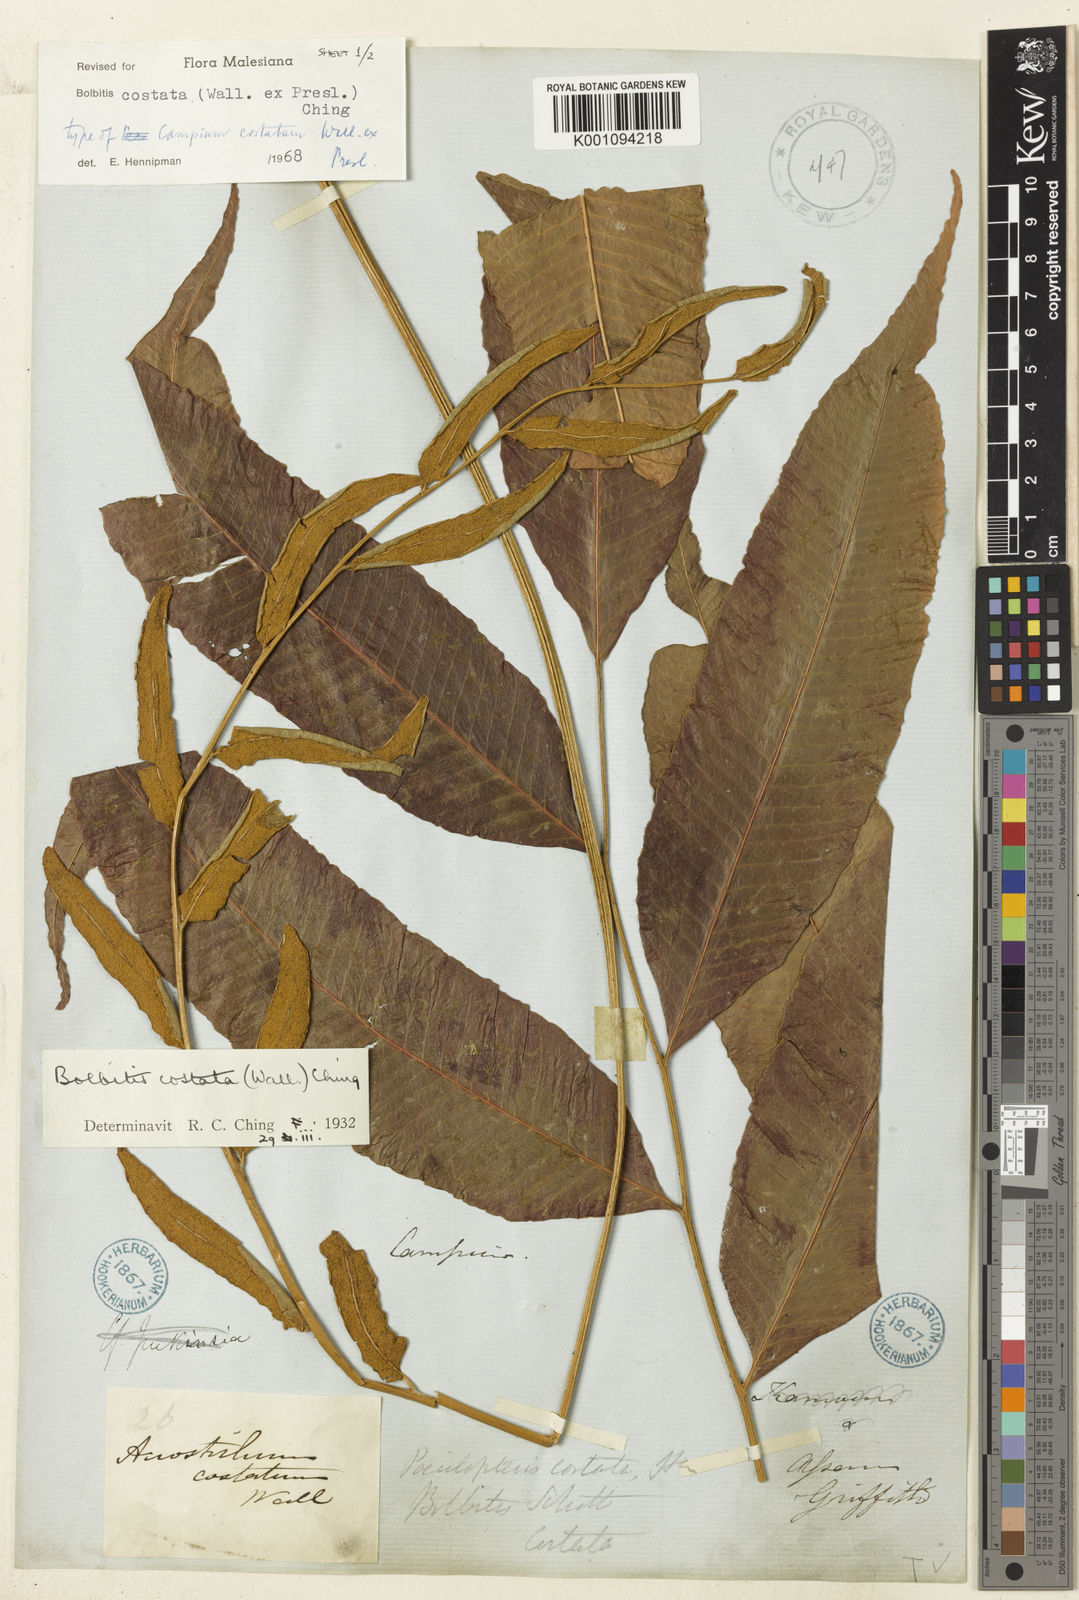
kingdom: Plantae
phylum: Tracheophyta
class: Polypodiopsida
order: Polypodiales
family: Dryopteridaceae
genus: Bolbitis
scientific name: Bolbitis costata
